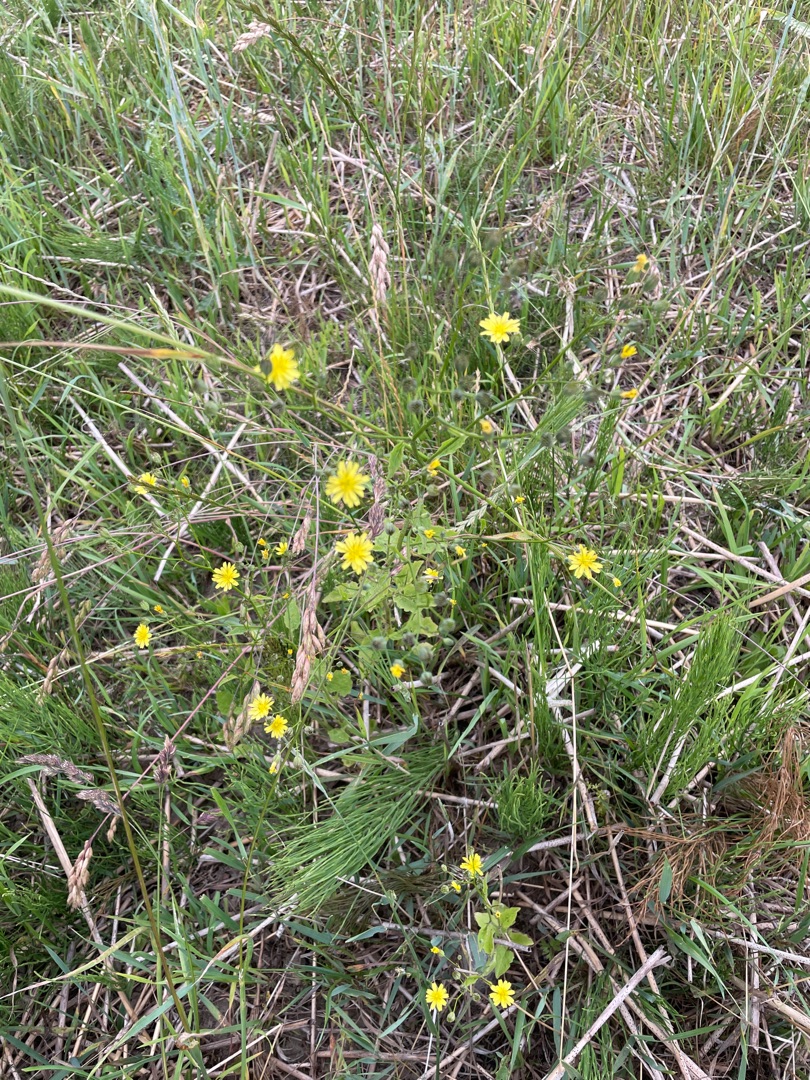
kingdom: Plantae
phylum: Tracheophyta
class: Magnoliopsida
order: Asterales
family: Asteraceae
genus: Lapsana
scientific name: Lapsana communis
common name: Haremad
